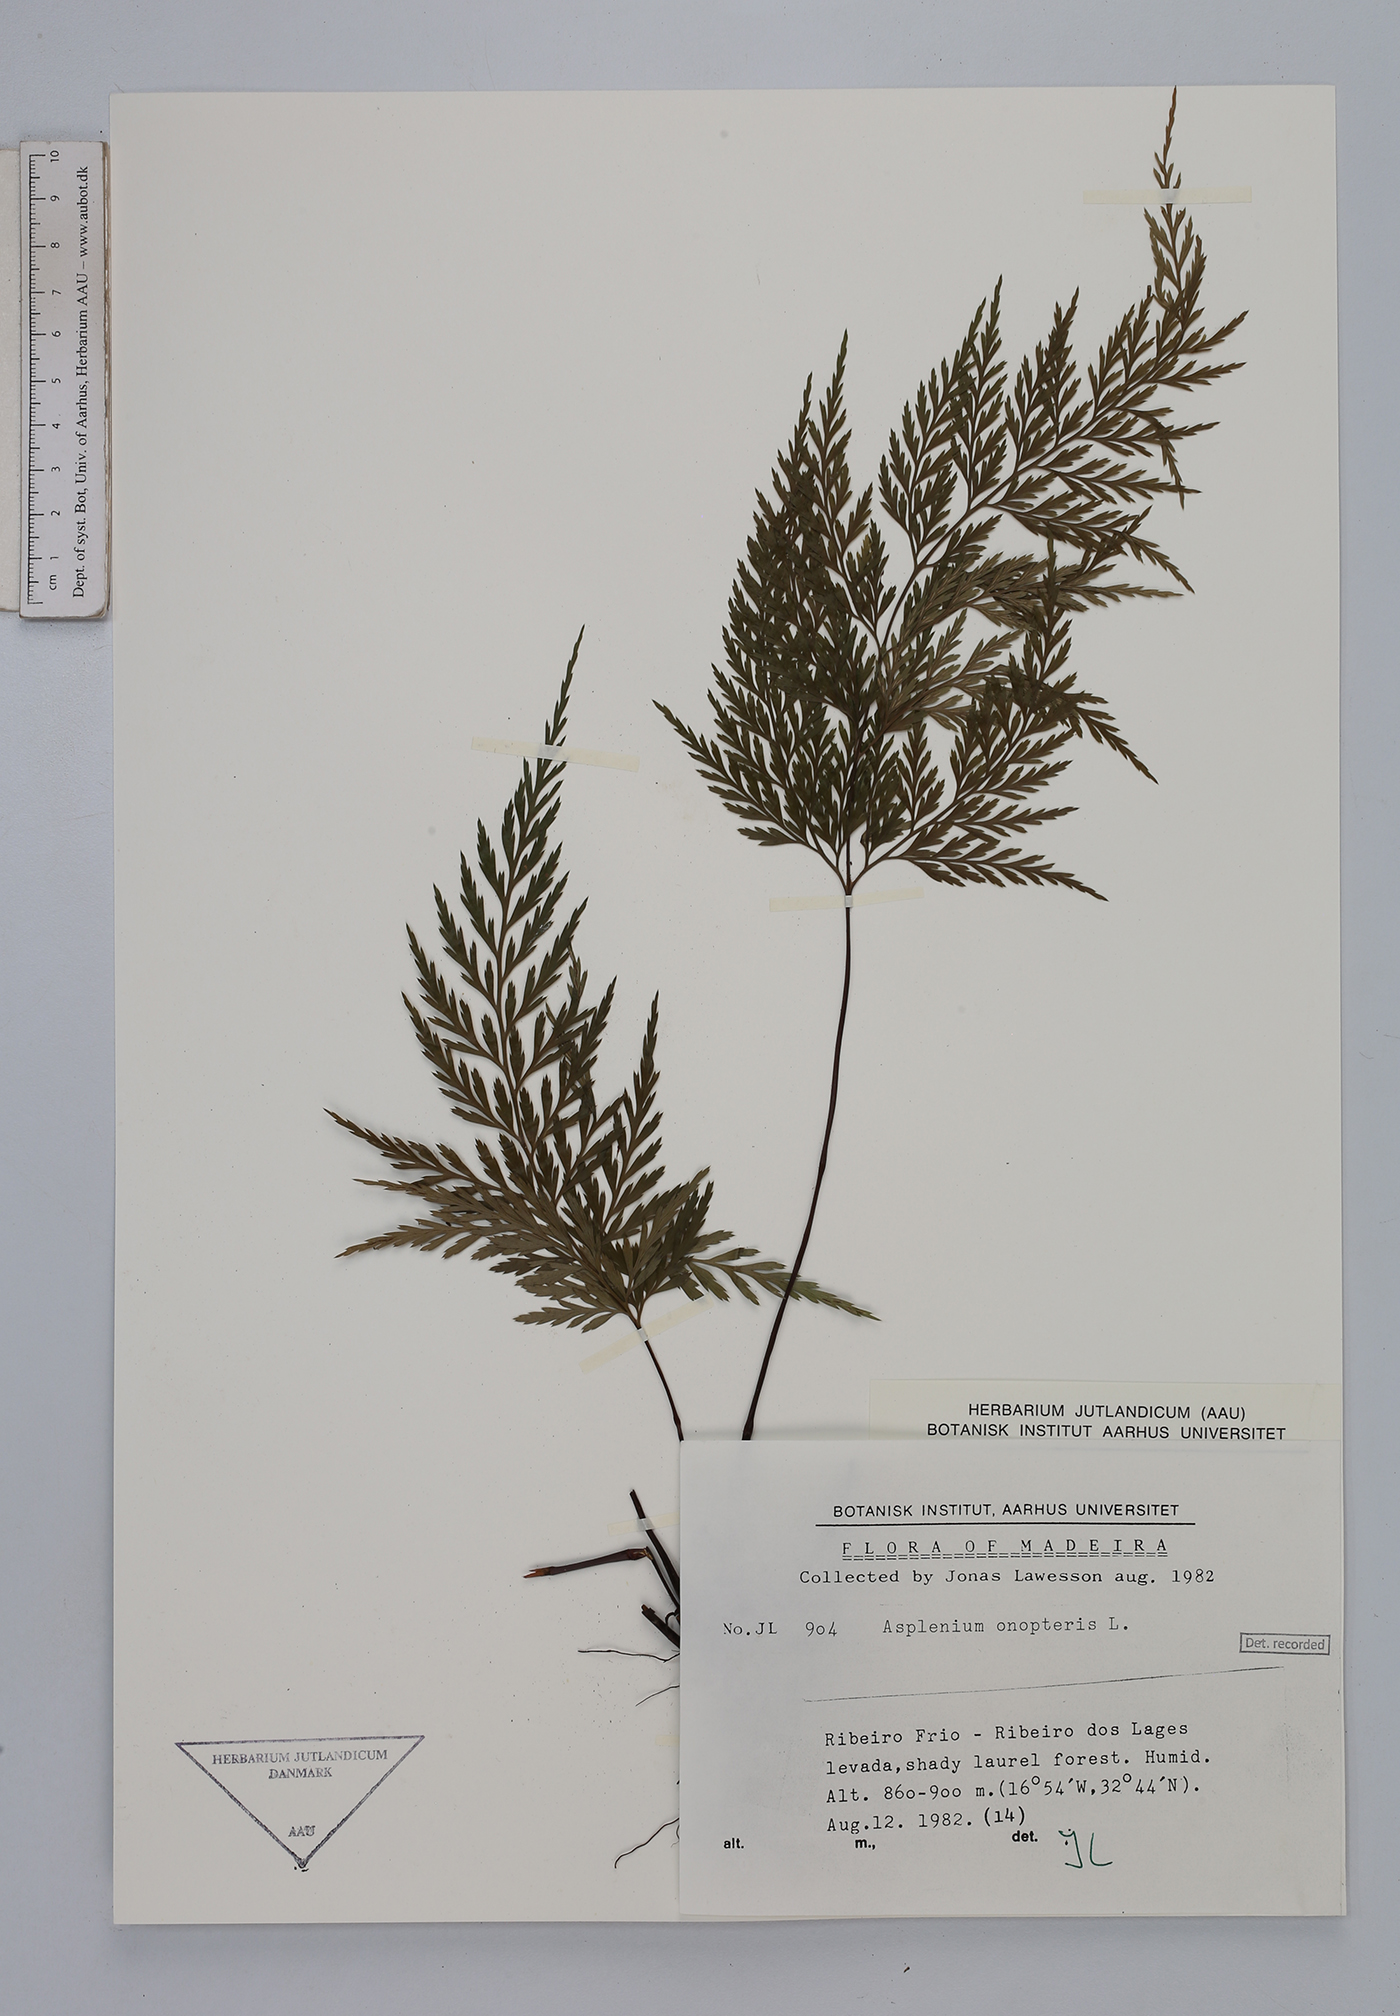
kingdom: Plantae
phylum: Tracheophyta
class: Polypodiopsida
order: Polypodiales
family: Aspleniaceae
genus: Asplenium
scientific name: Asplenium onopteris
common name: Irish spleenwort
